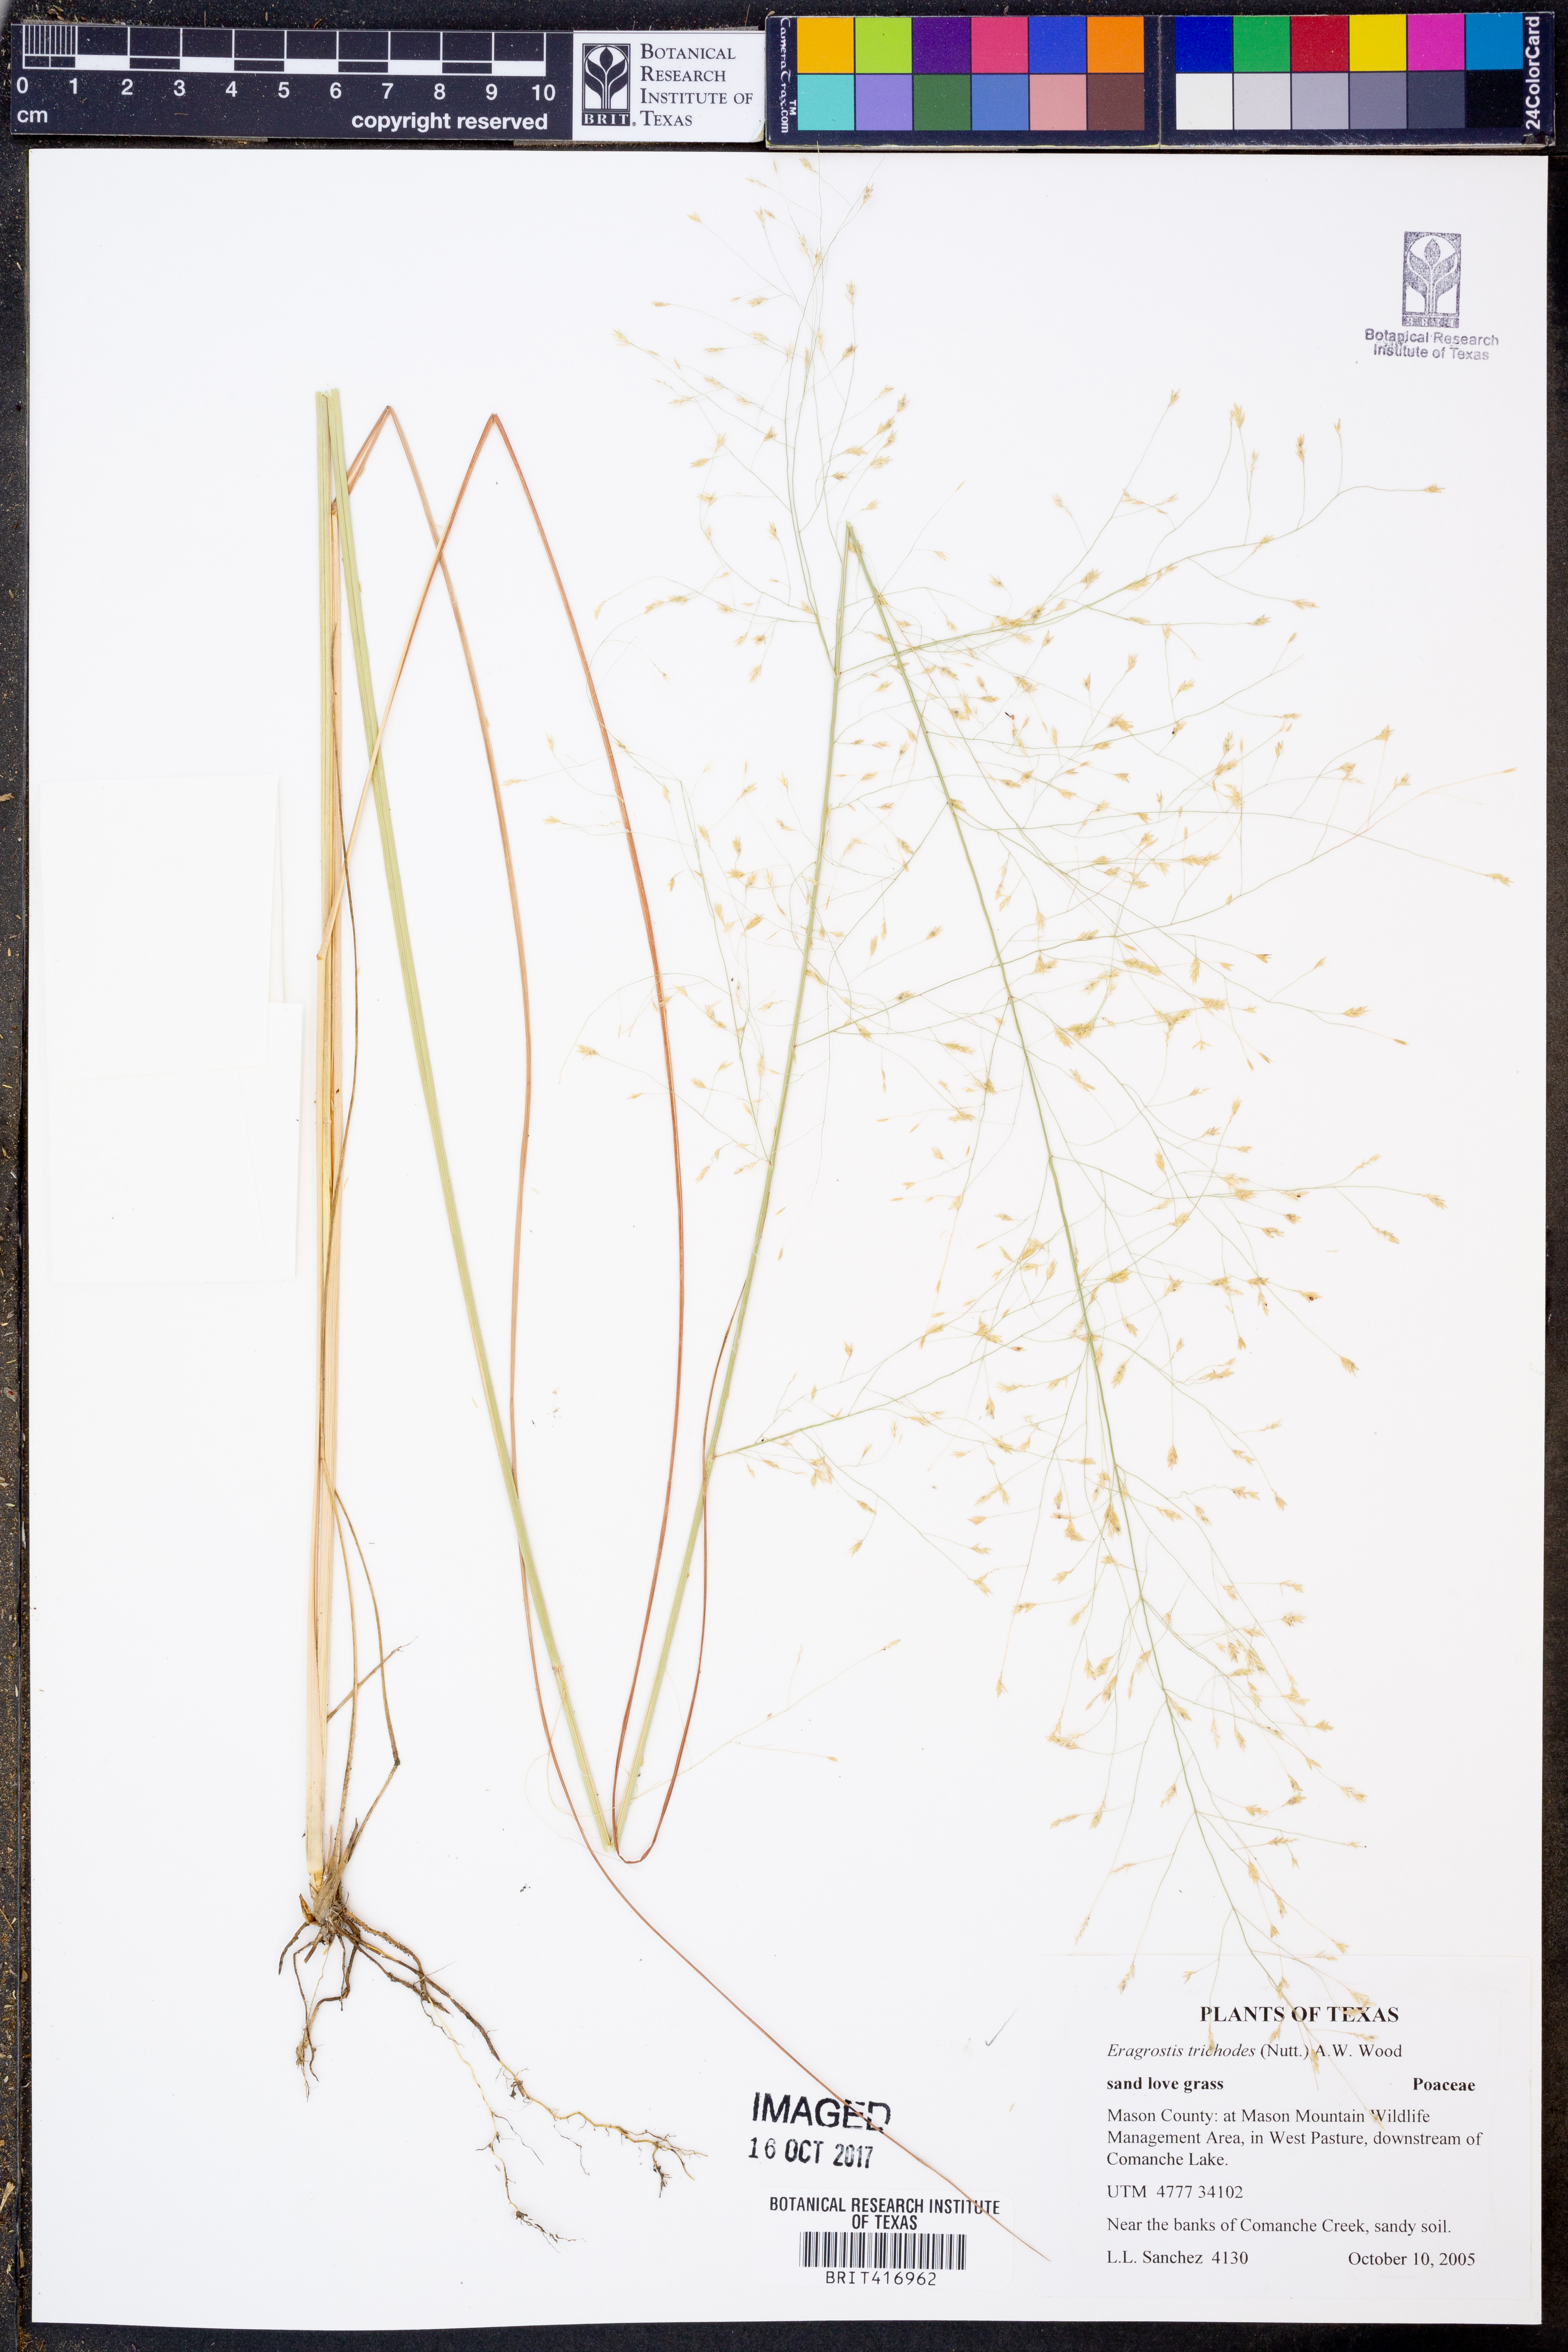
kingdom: Plantae
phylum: Tracheophyta
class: Liliopsida
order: Poales
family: Poaceae
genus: Eragrostis
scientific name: Eragrostis trichodes
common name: Sand love grass
